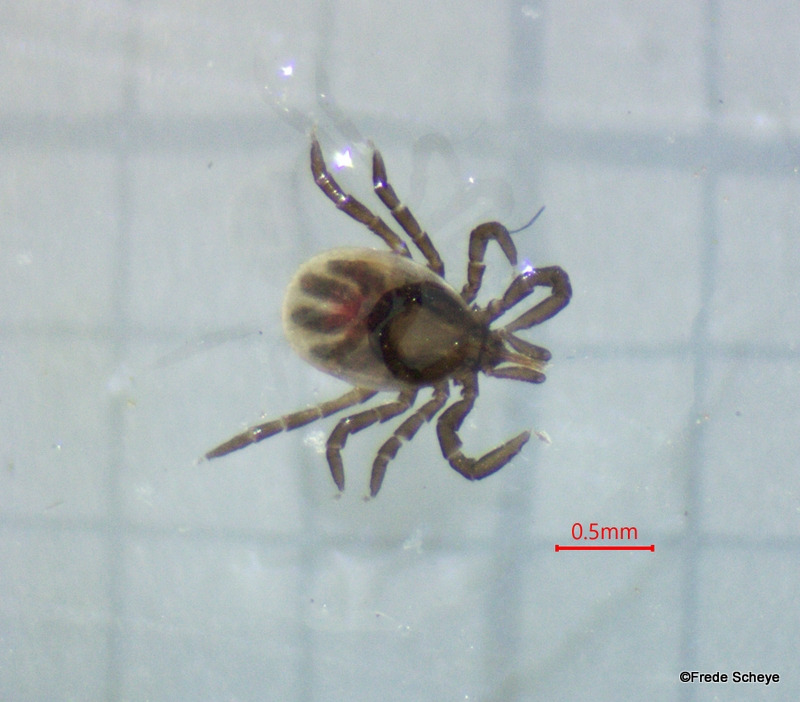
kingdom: Animalia
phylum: Arthropoda
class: Arachnida
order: Ixodida
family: Ixodidae
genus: Ixodes
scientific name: Ixodes ricinus
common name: Skovflåt
